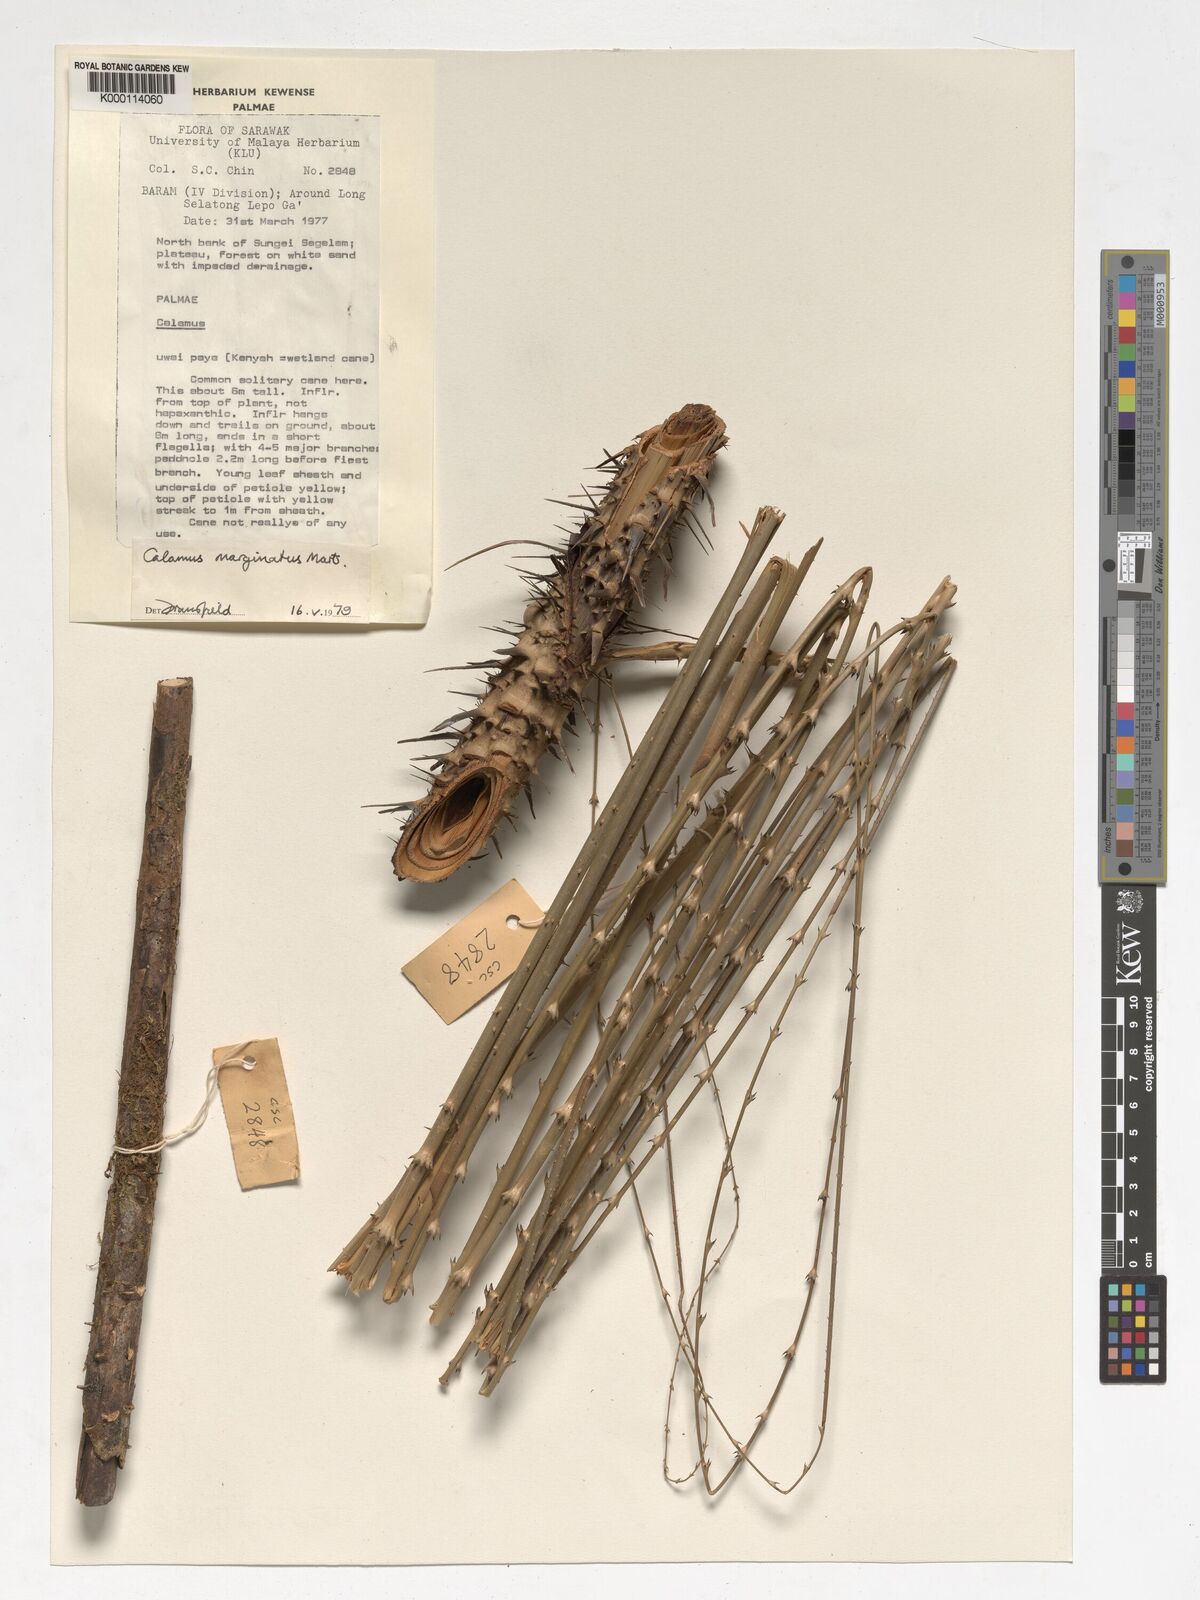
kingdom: Plantae
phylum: Tracheophyta
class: Liliopsida
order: Arecales
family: Arecaceae
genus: Calamus
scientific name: Calamus
